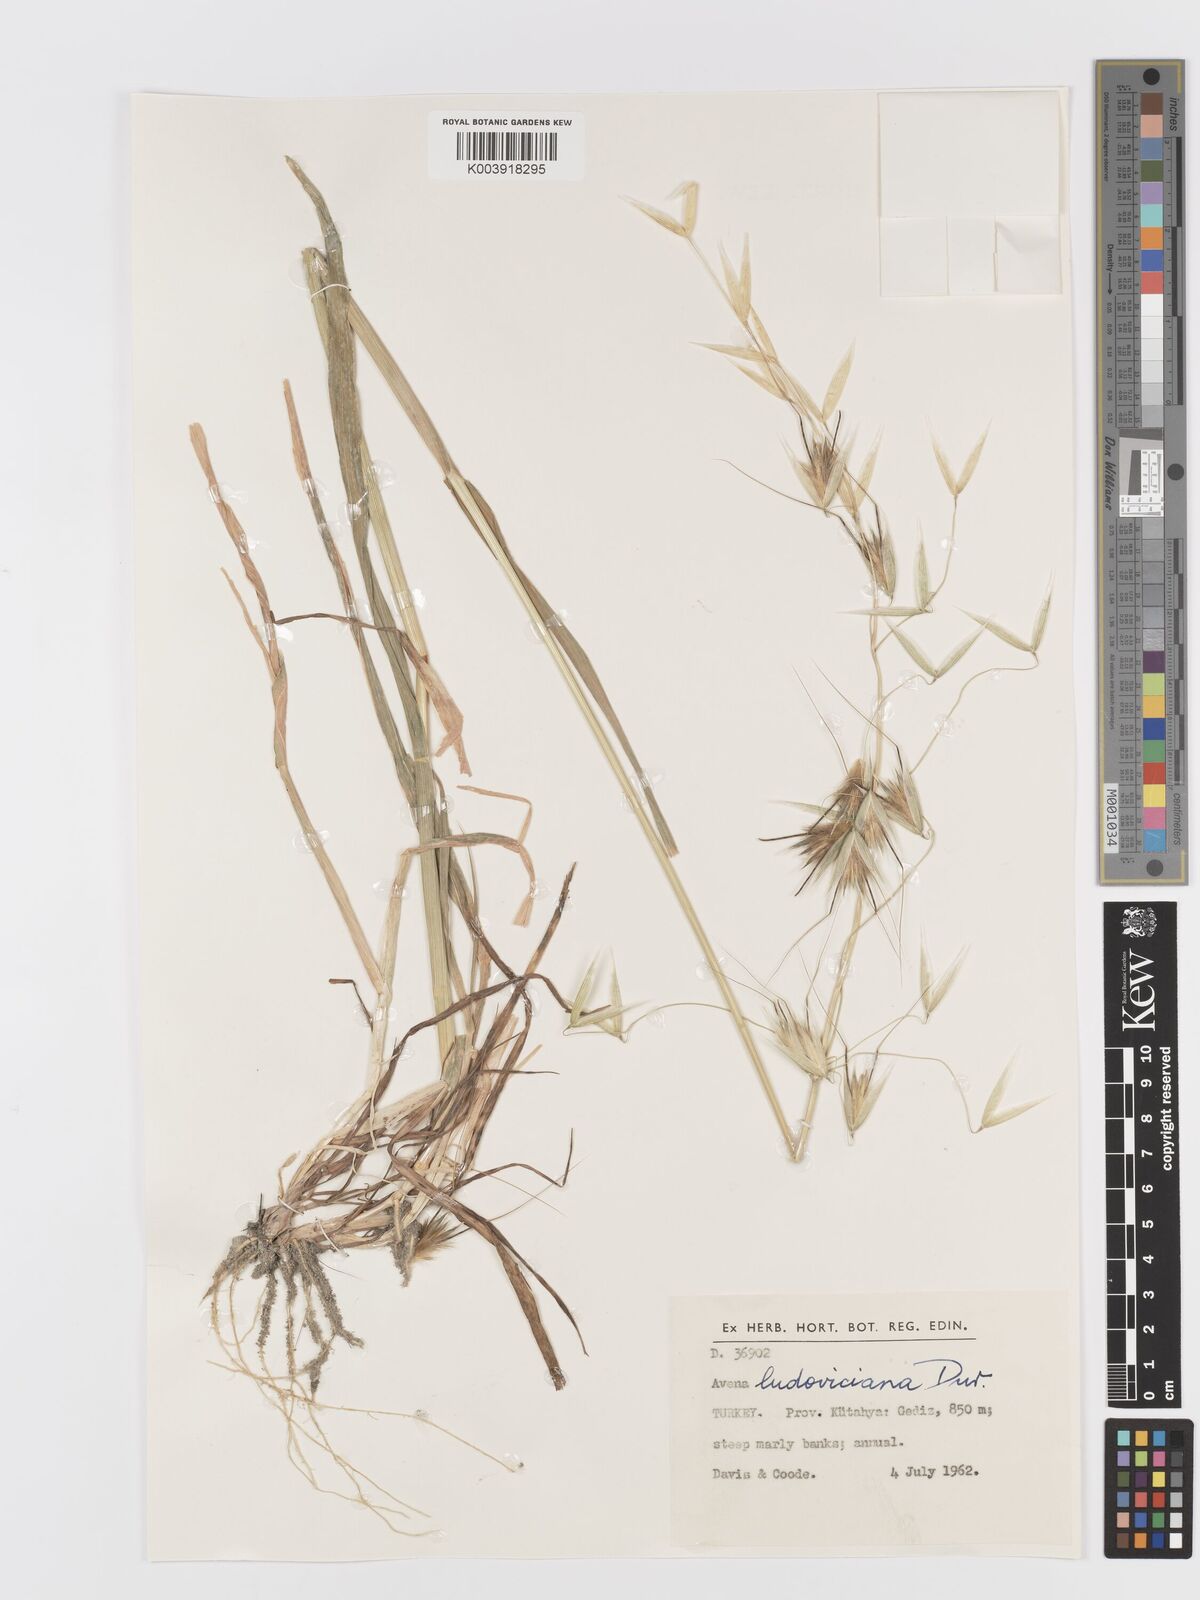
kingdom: Plantae
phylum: Tracheophyta
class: Liliopsida
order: Poales
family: Poaceae
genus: Avena
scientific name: Avena sterilis
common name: Animated oat
